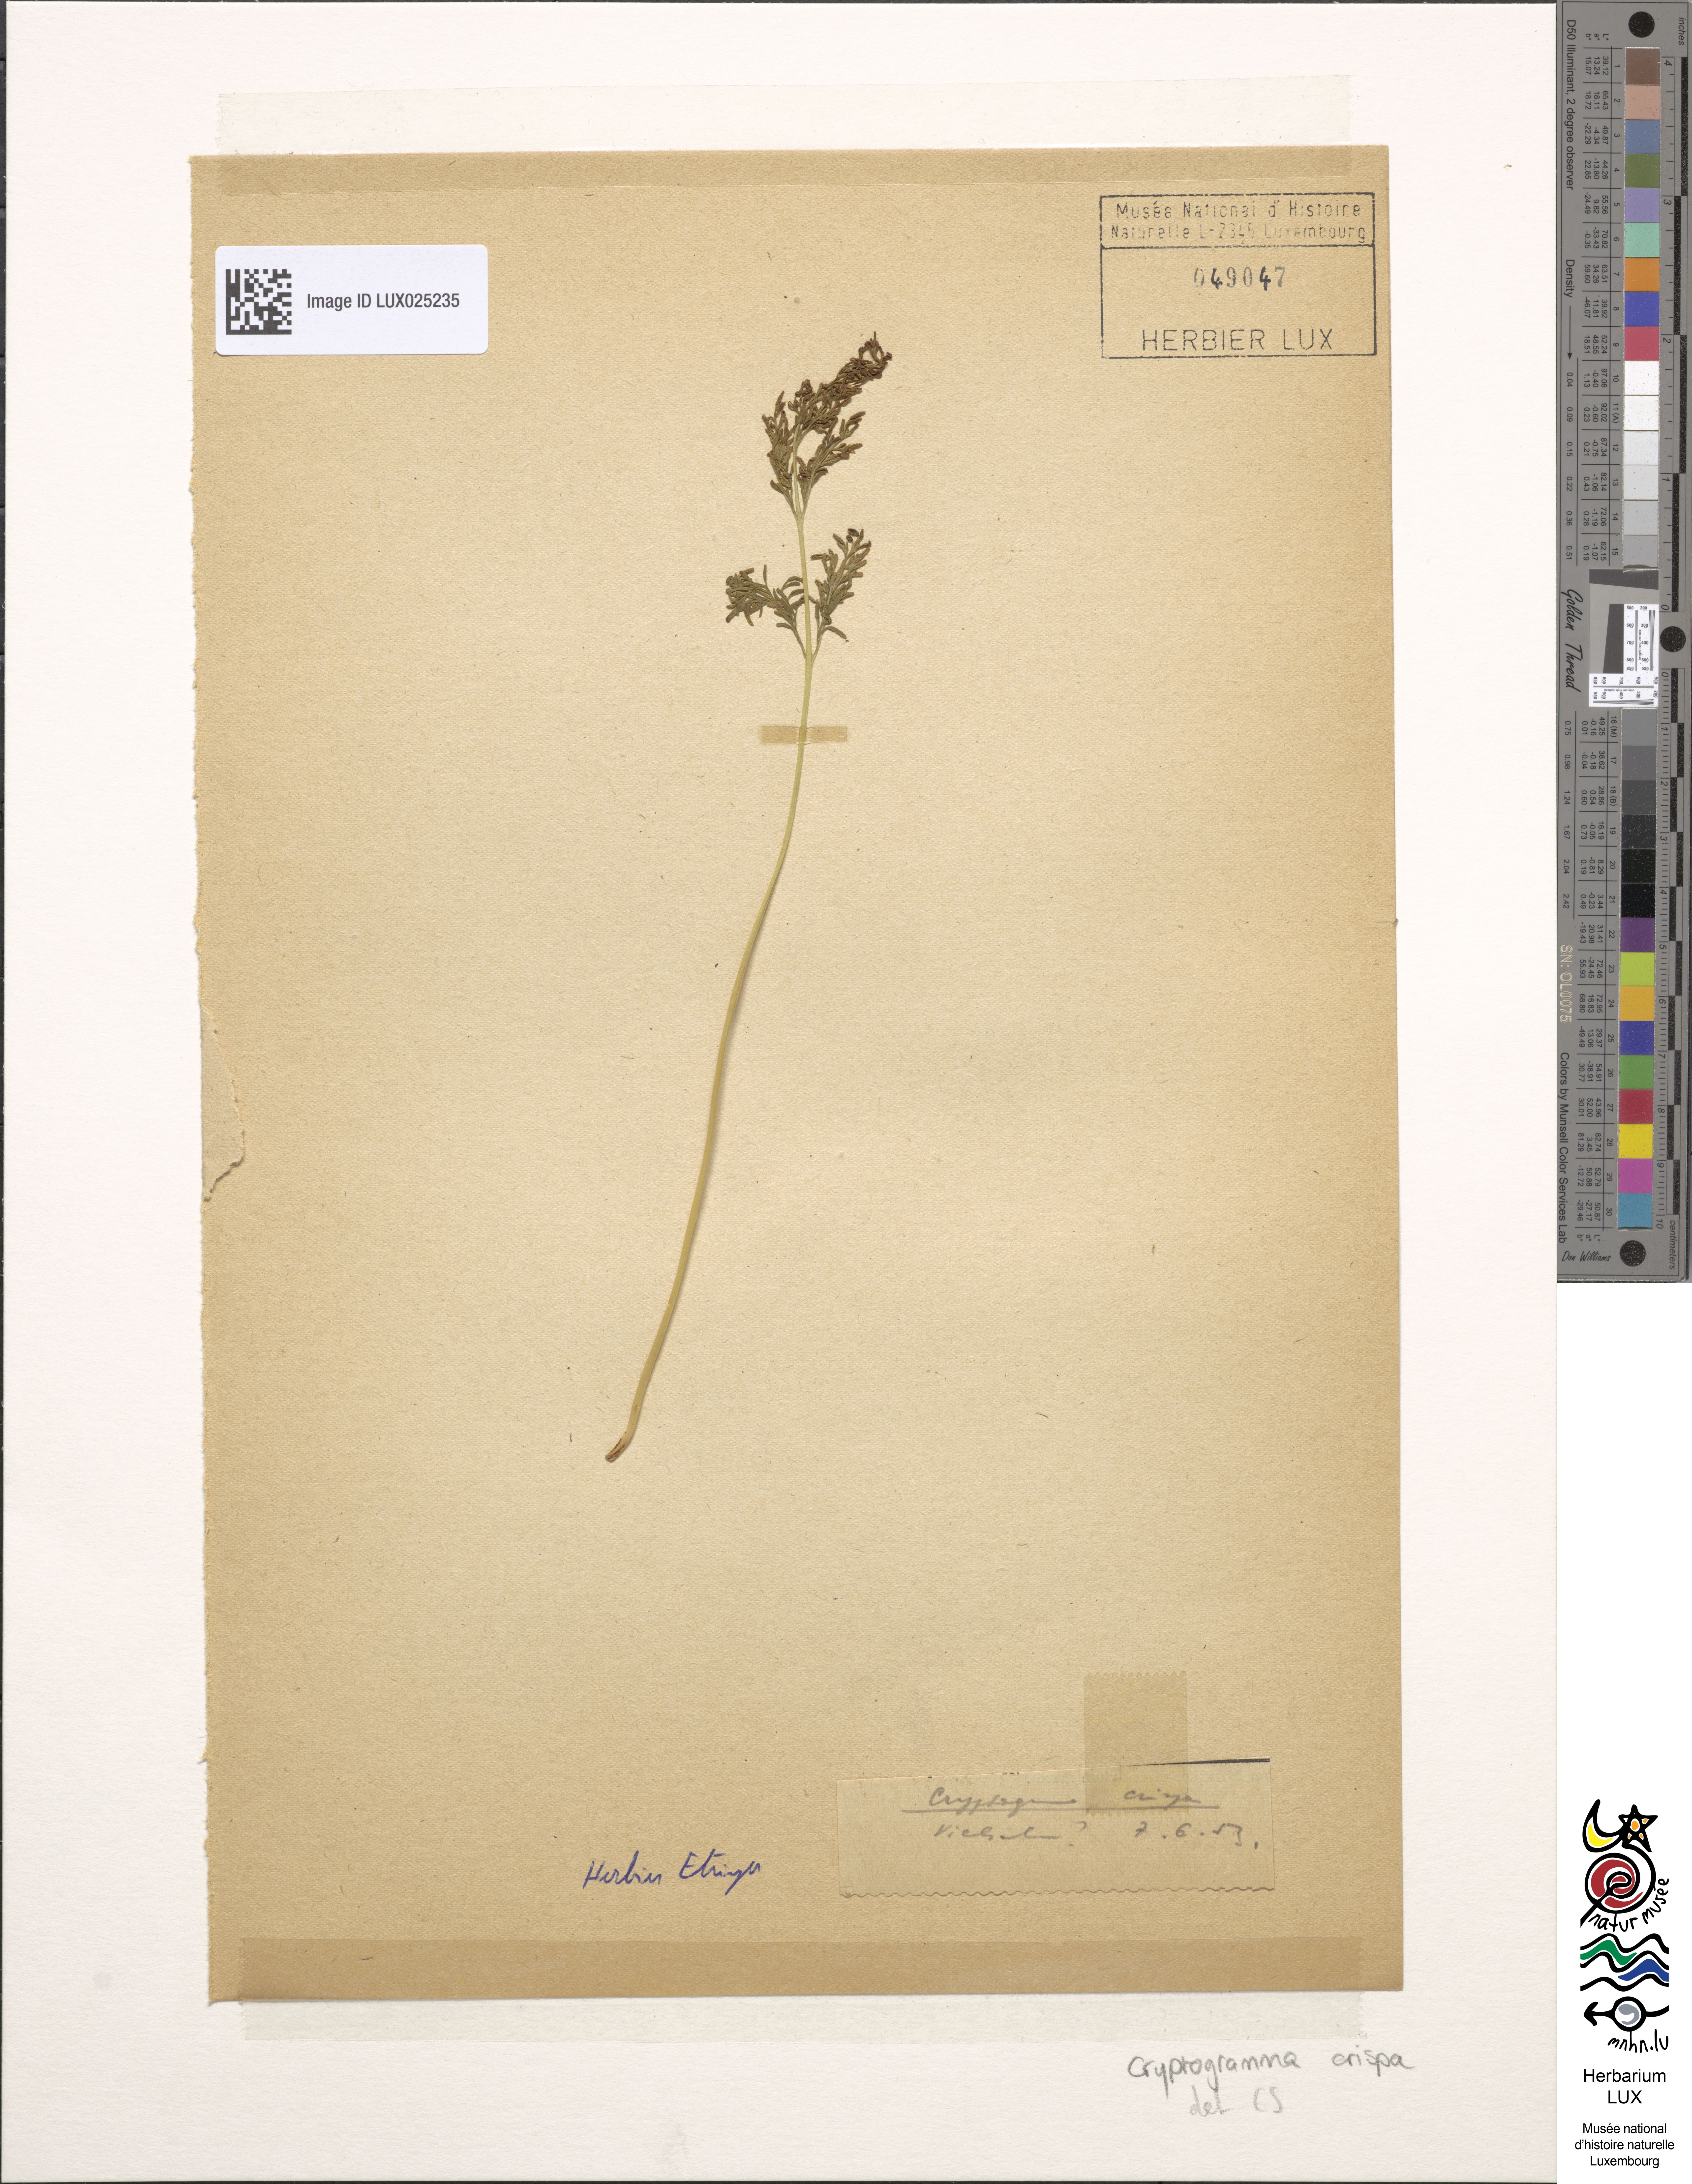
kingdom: Plantae
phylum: Tracheophyta
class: Polypodiopsida
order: Polypodiales
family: Pteridaceae
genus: Cryptogramma
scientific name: Cryptogramma crispa
